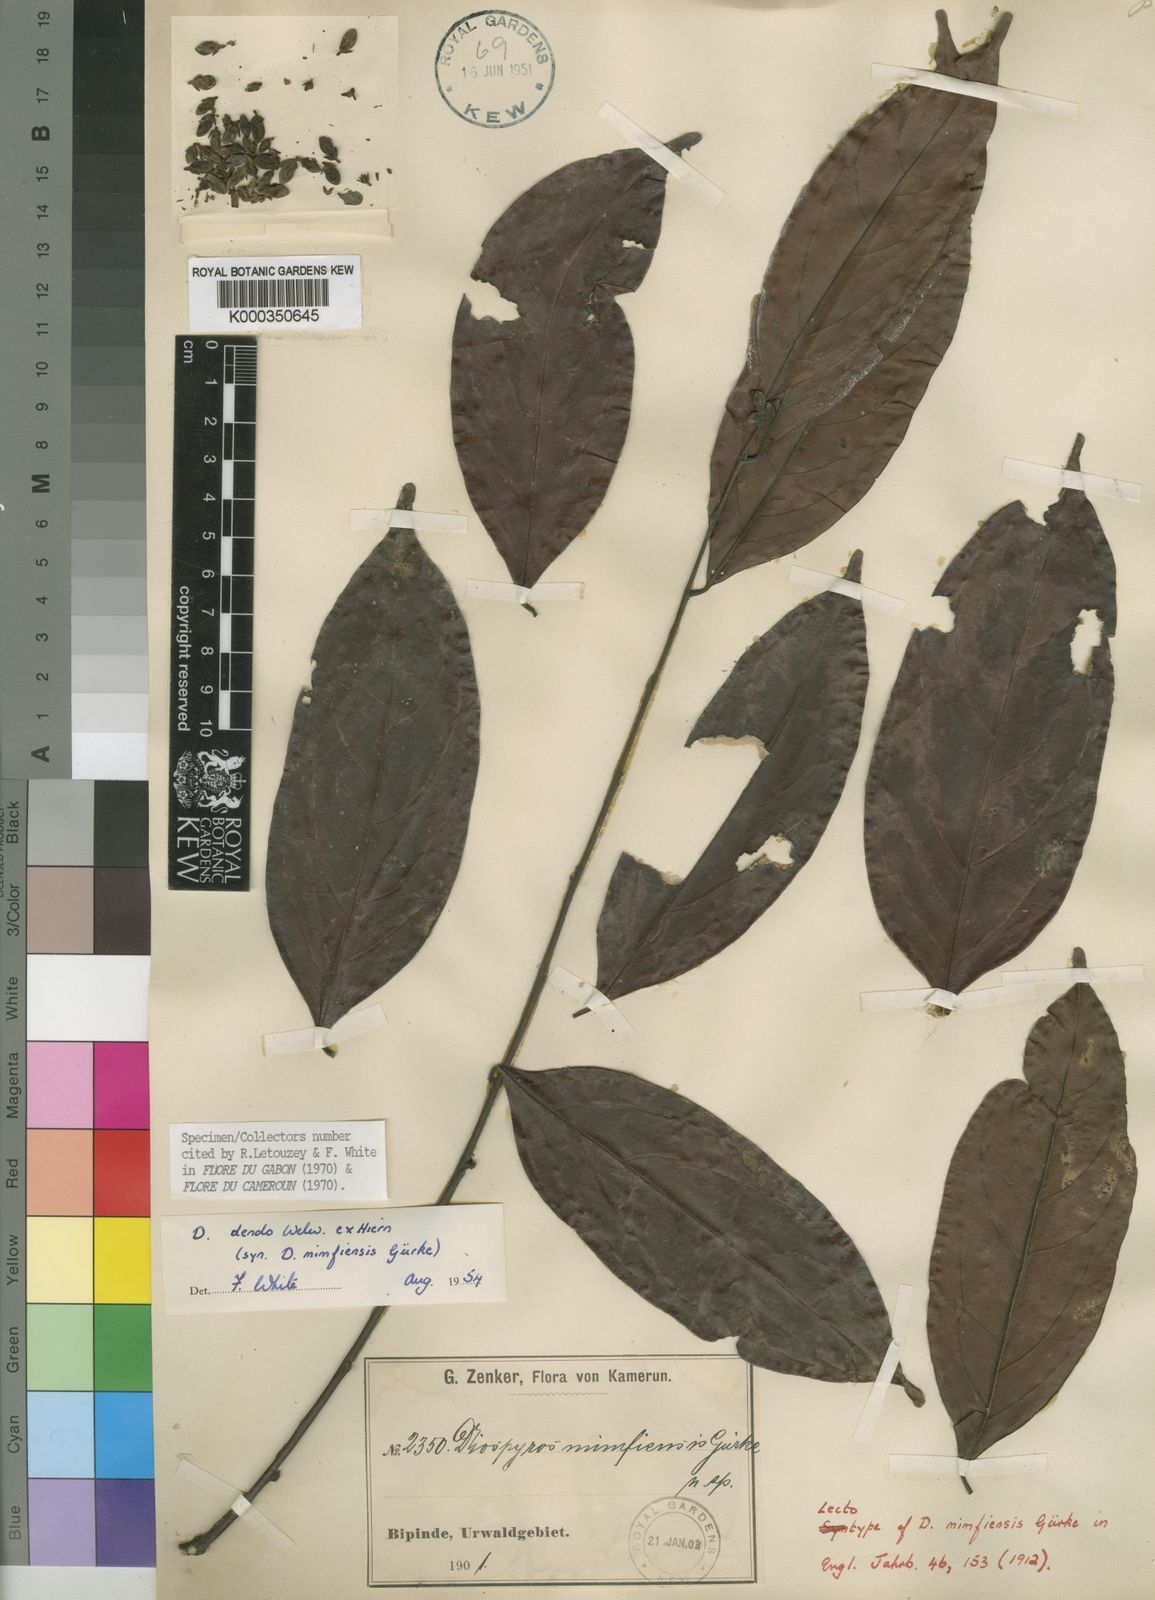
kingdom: Plantae
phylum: Tracheophyta
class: Magnoliopsida
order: Ericales
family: Ebenaceae
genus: Diospyros
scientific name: Diospyros dendo
